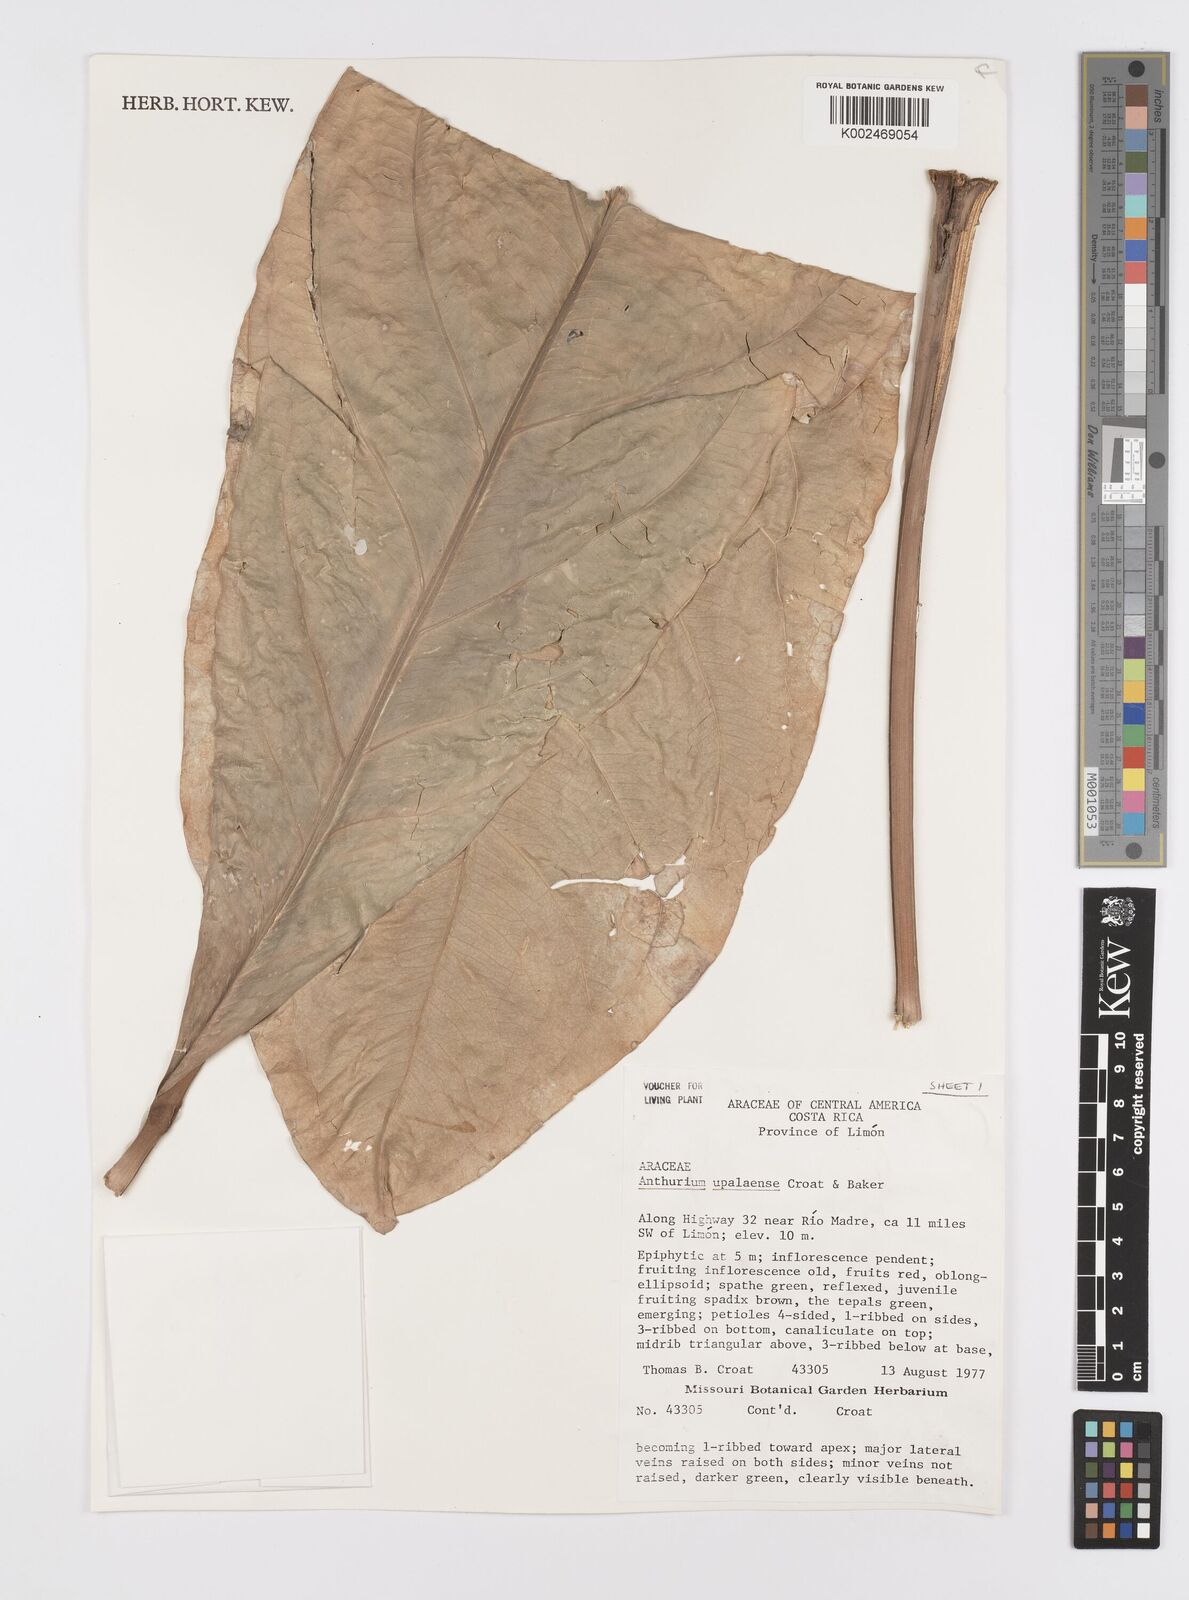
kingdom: Plantae
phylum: Tracheophyta
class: Liliopsida
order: Alismatales
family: Araceae
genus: Anthurium
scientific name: Anthurium upalaense
